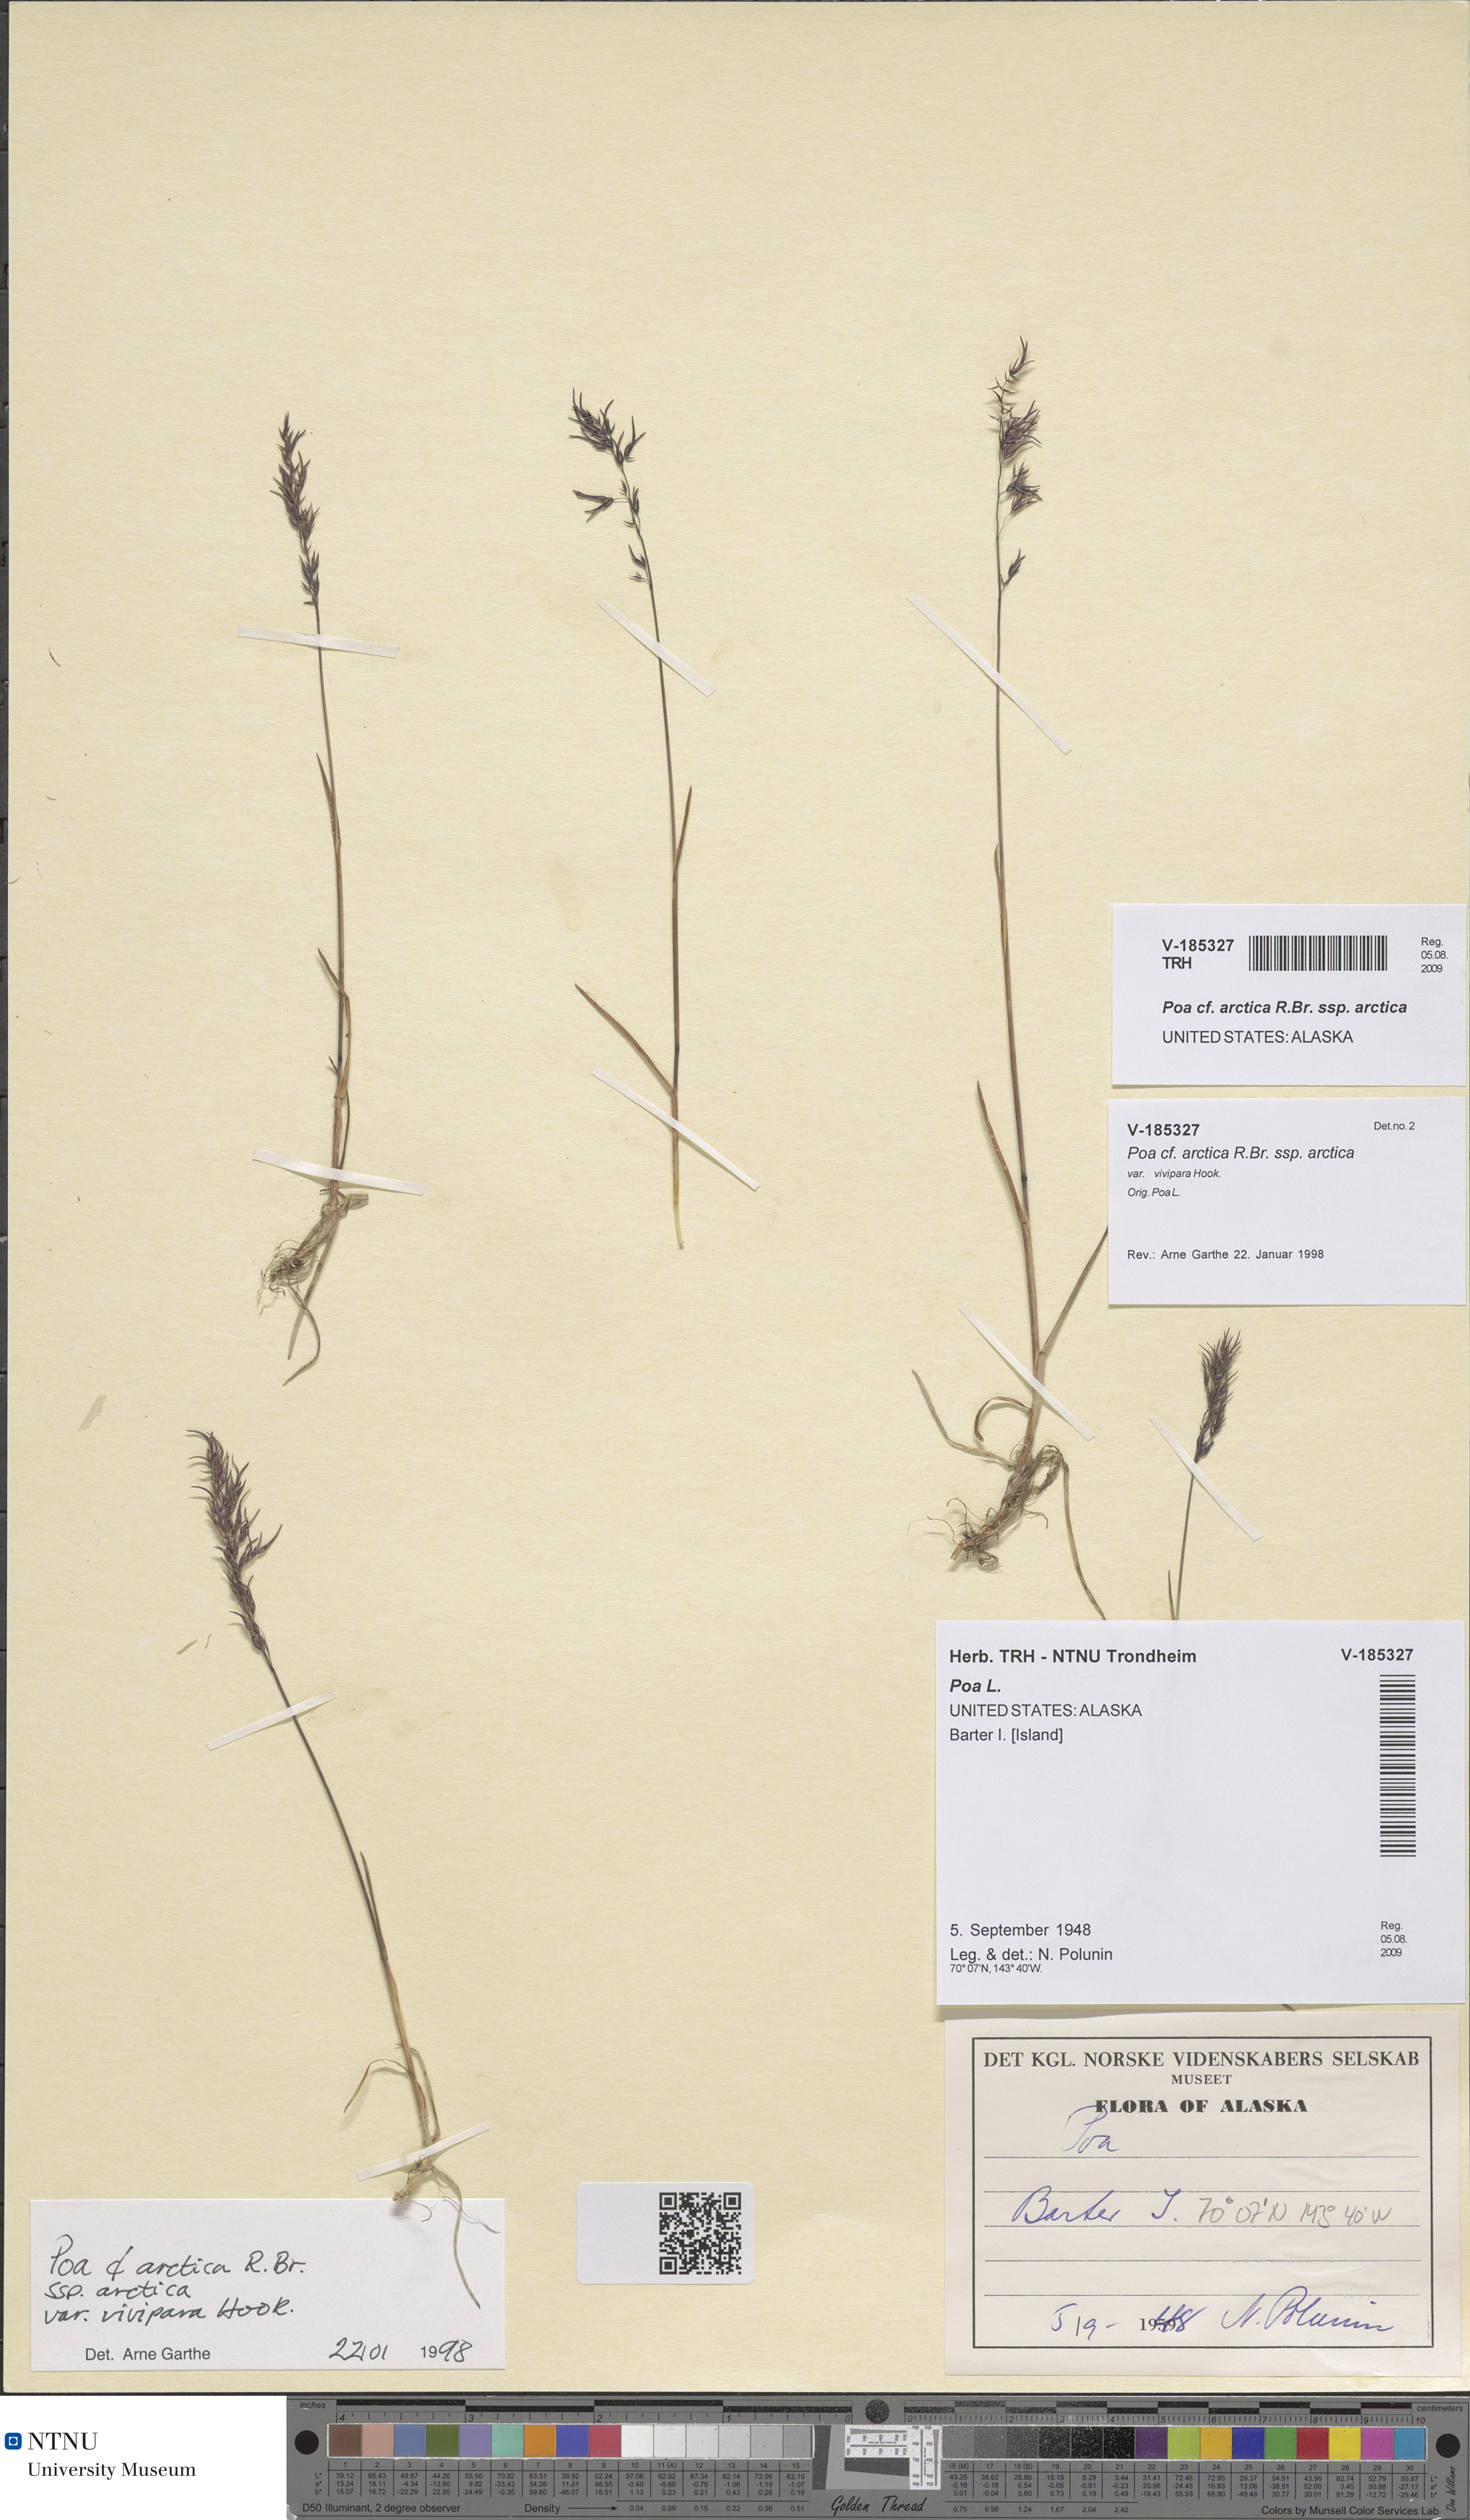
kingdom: Plantae
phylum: Tracheophyta
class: Liliopsida
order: Poales
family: Poaceae
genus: Poa
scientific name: Poa arctica
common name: Arctic bluegrass
